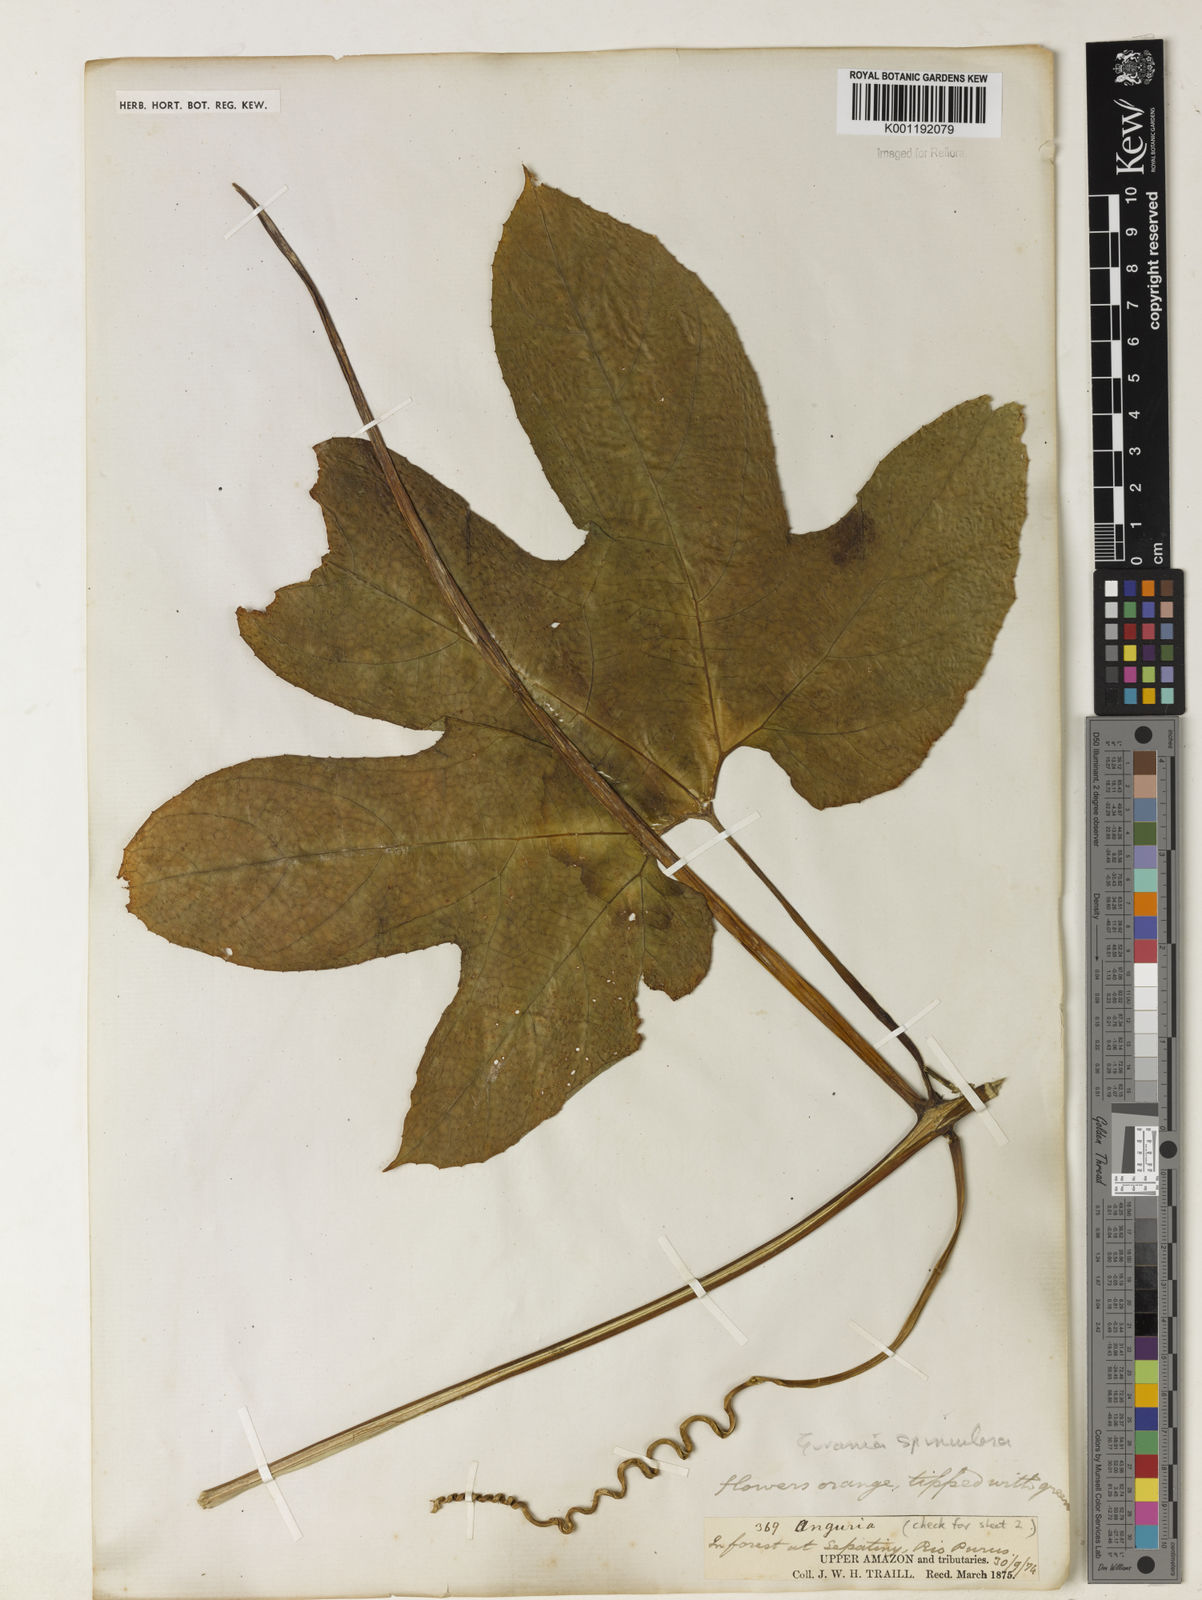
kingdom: Plantae
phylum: Tracheophyta
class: Magnoliopsida
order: Cucurbitales
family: Cucurbitaceae
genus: Gurania
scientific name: Gurania lobata
